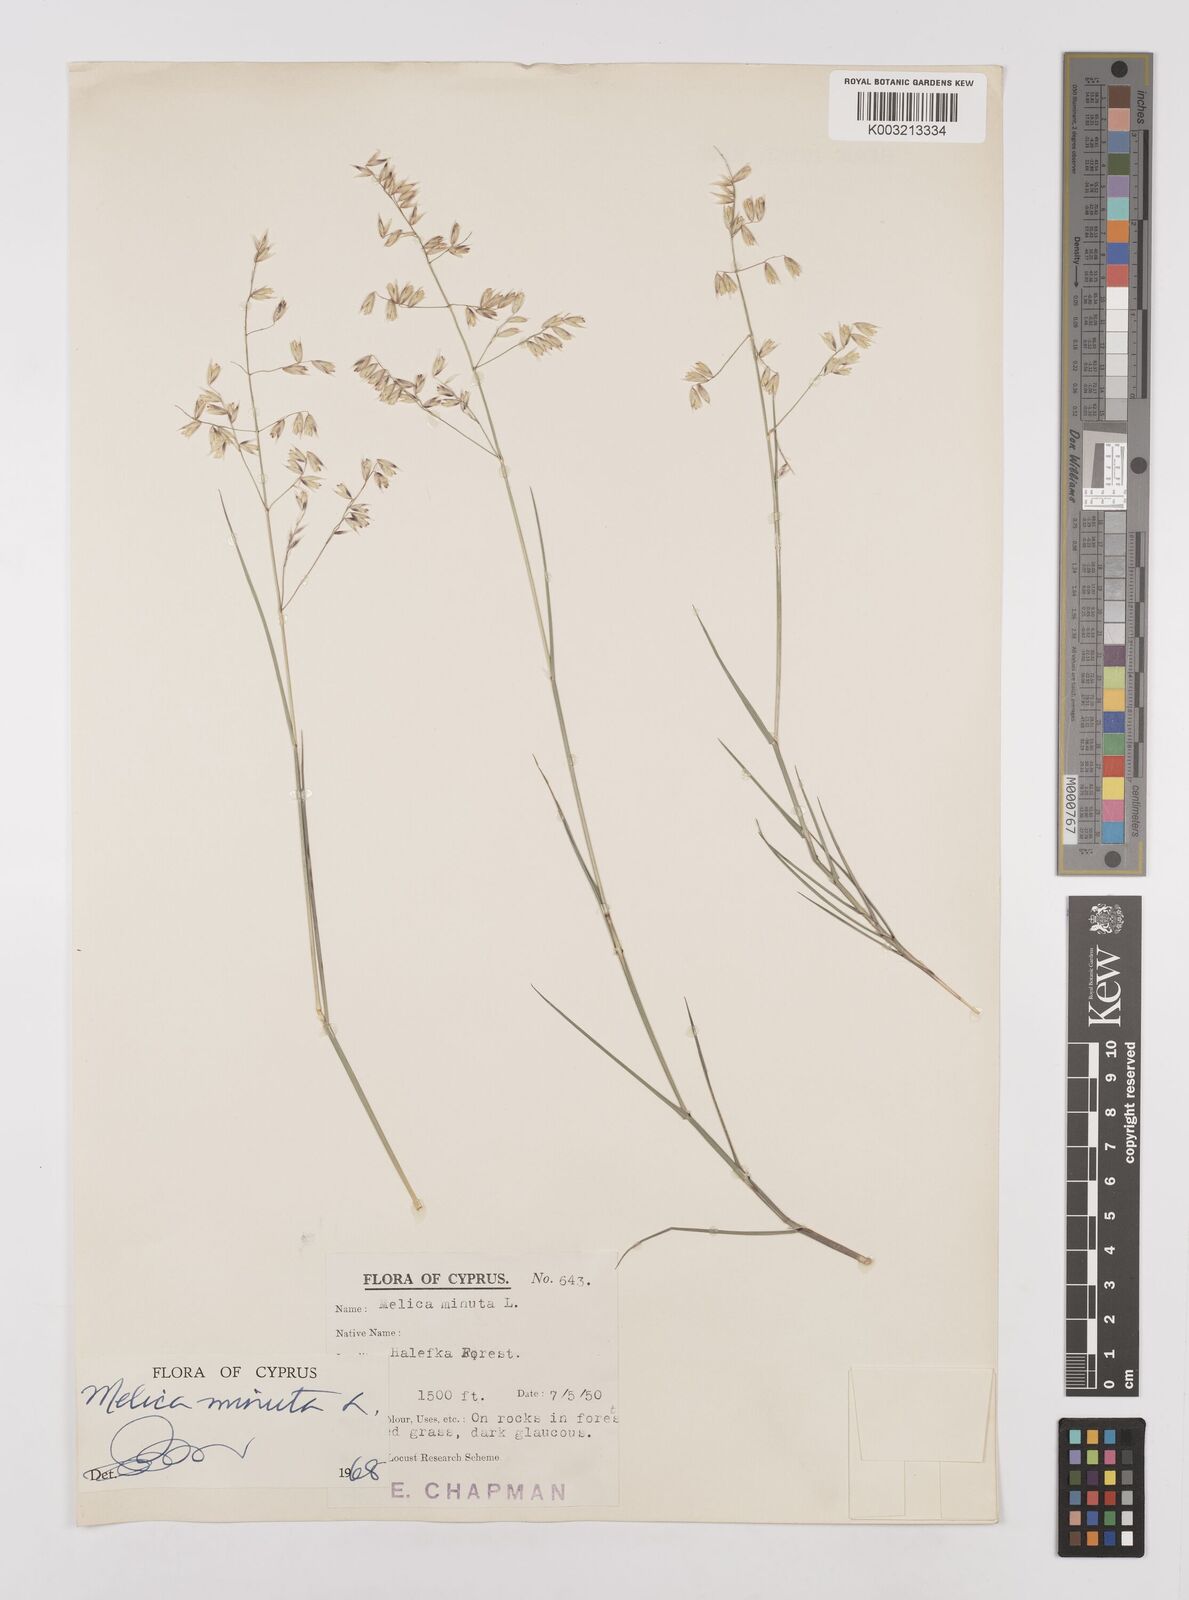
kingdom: Plantae
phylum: Tracheophyta
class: Liliopsida
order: Poales
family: Poaceae
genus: Melica
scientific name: Melica minuta
